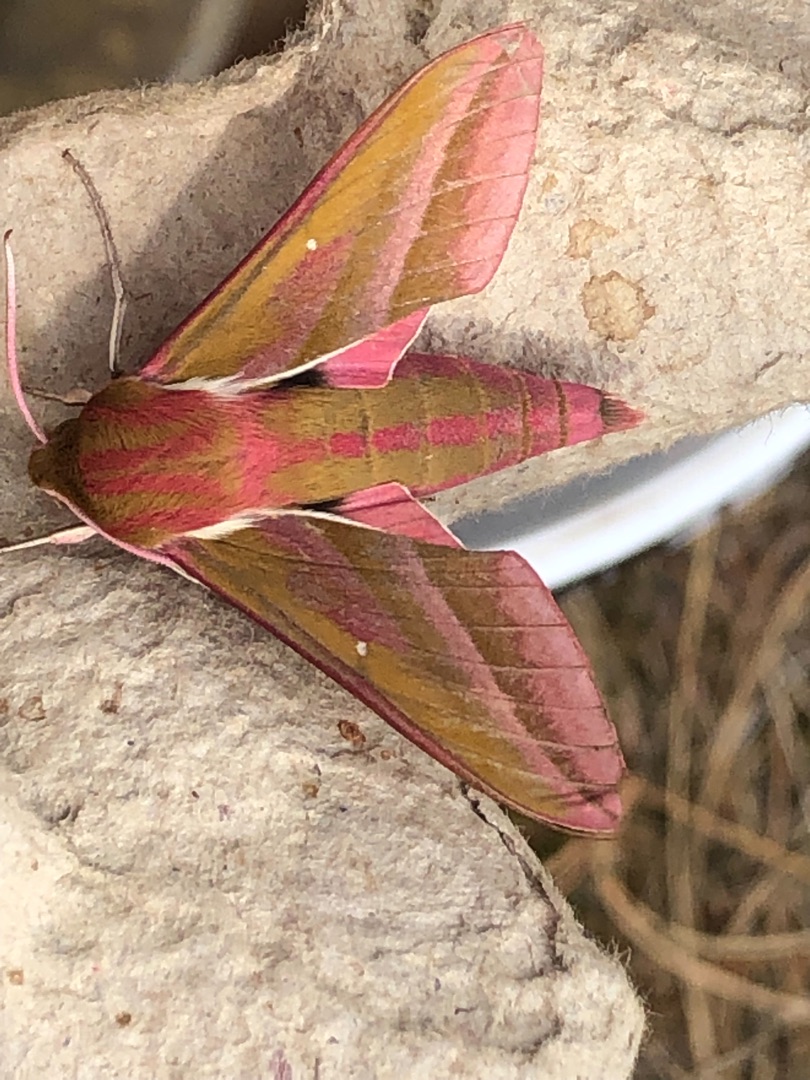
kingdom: Animalia
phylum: Arthropoda
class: Insecta
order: Lepidoptera
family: Sphingidae
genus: Deilephila
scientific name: Deilephila elpenor
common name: Dueurtsværmer
